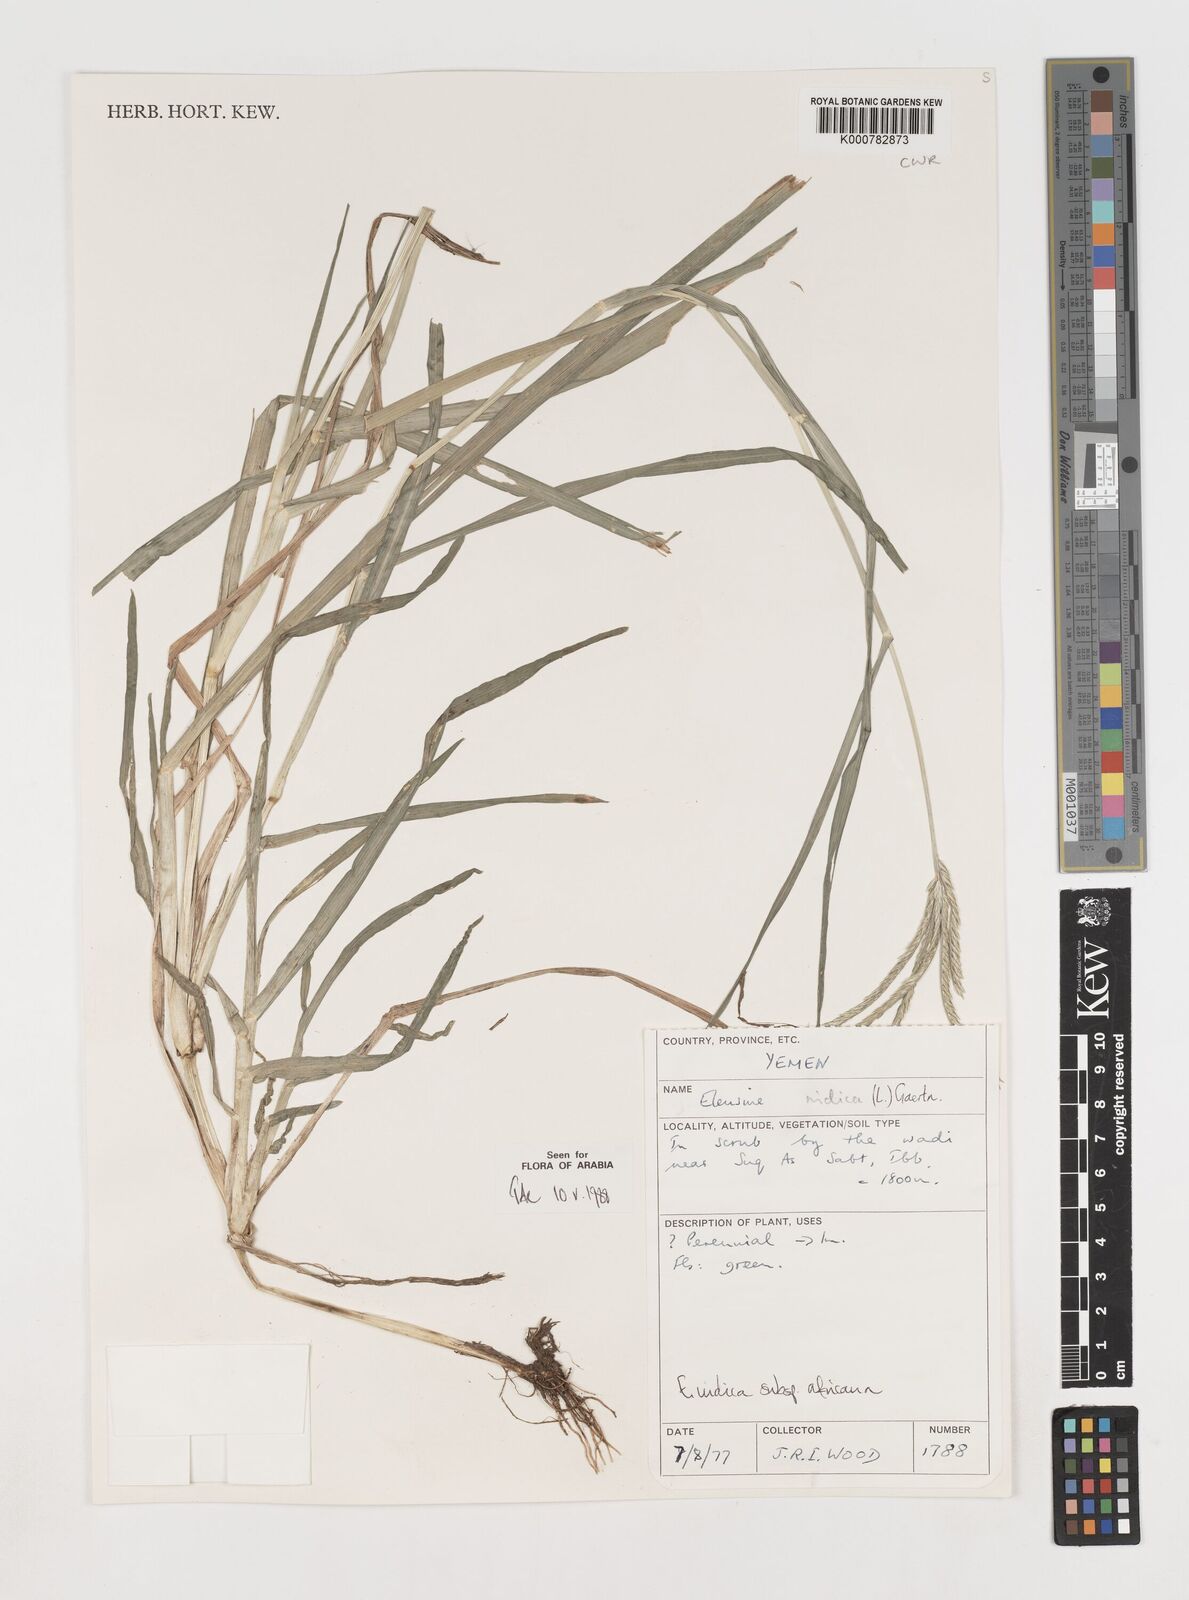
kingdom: Plantae
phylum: Tracheophyta
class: Liliopsida
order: Poales
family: Poaceae
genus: Eleusine
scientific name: Eleusine africana
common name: Wild african finger millet
